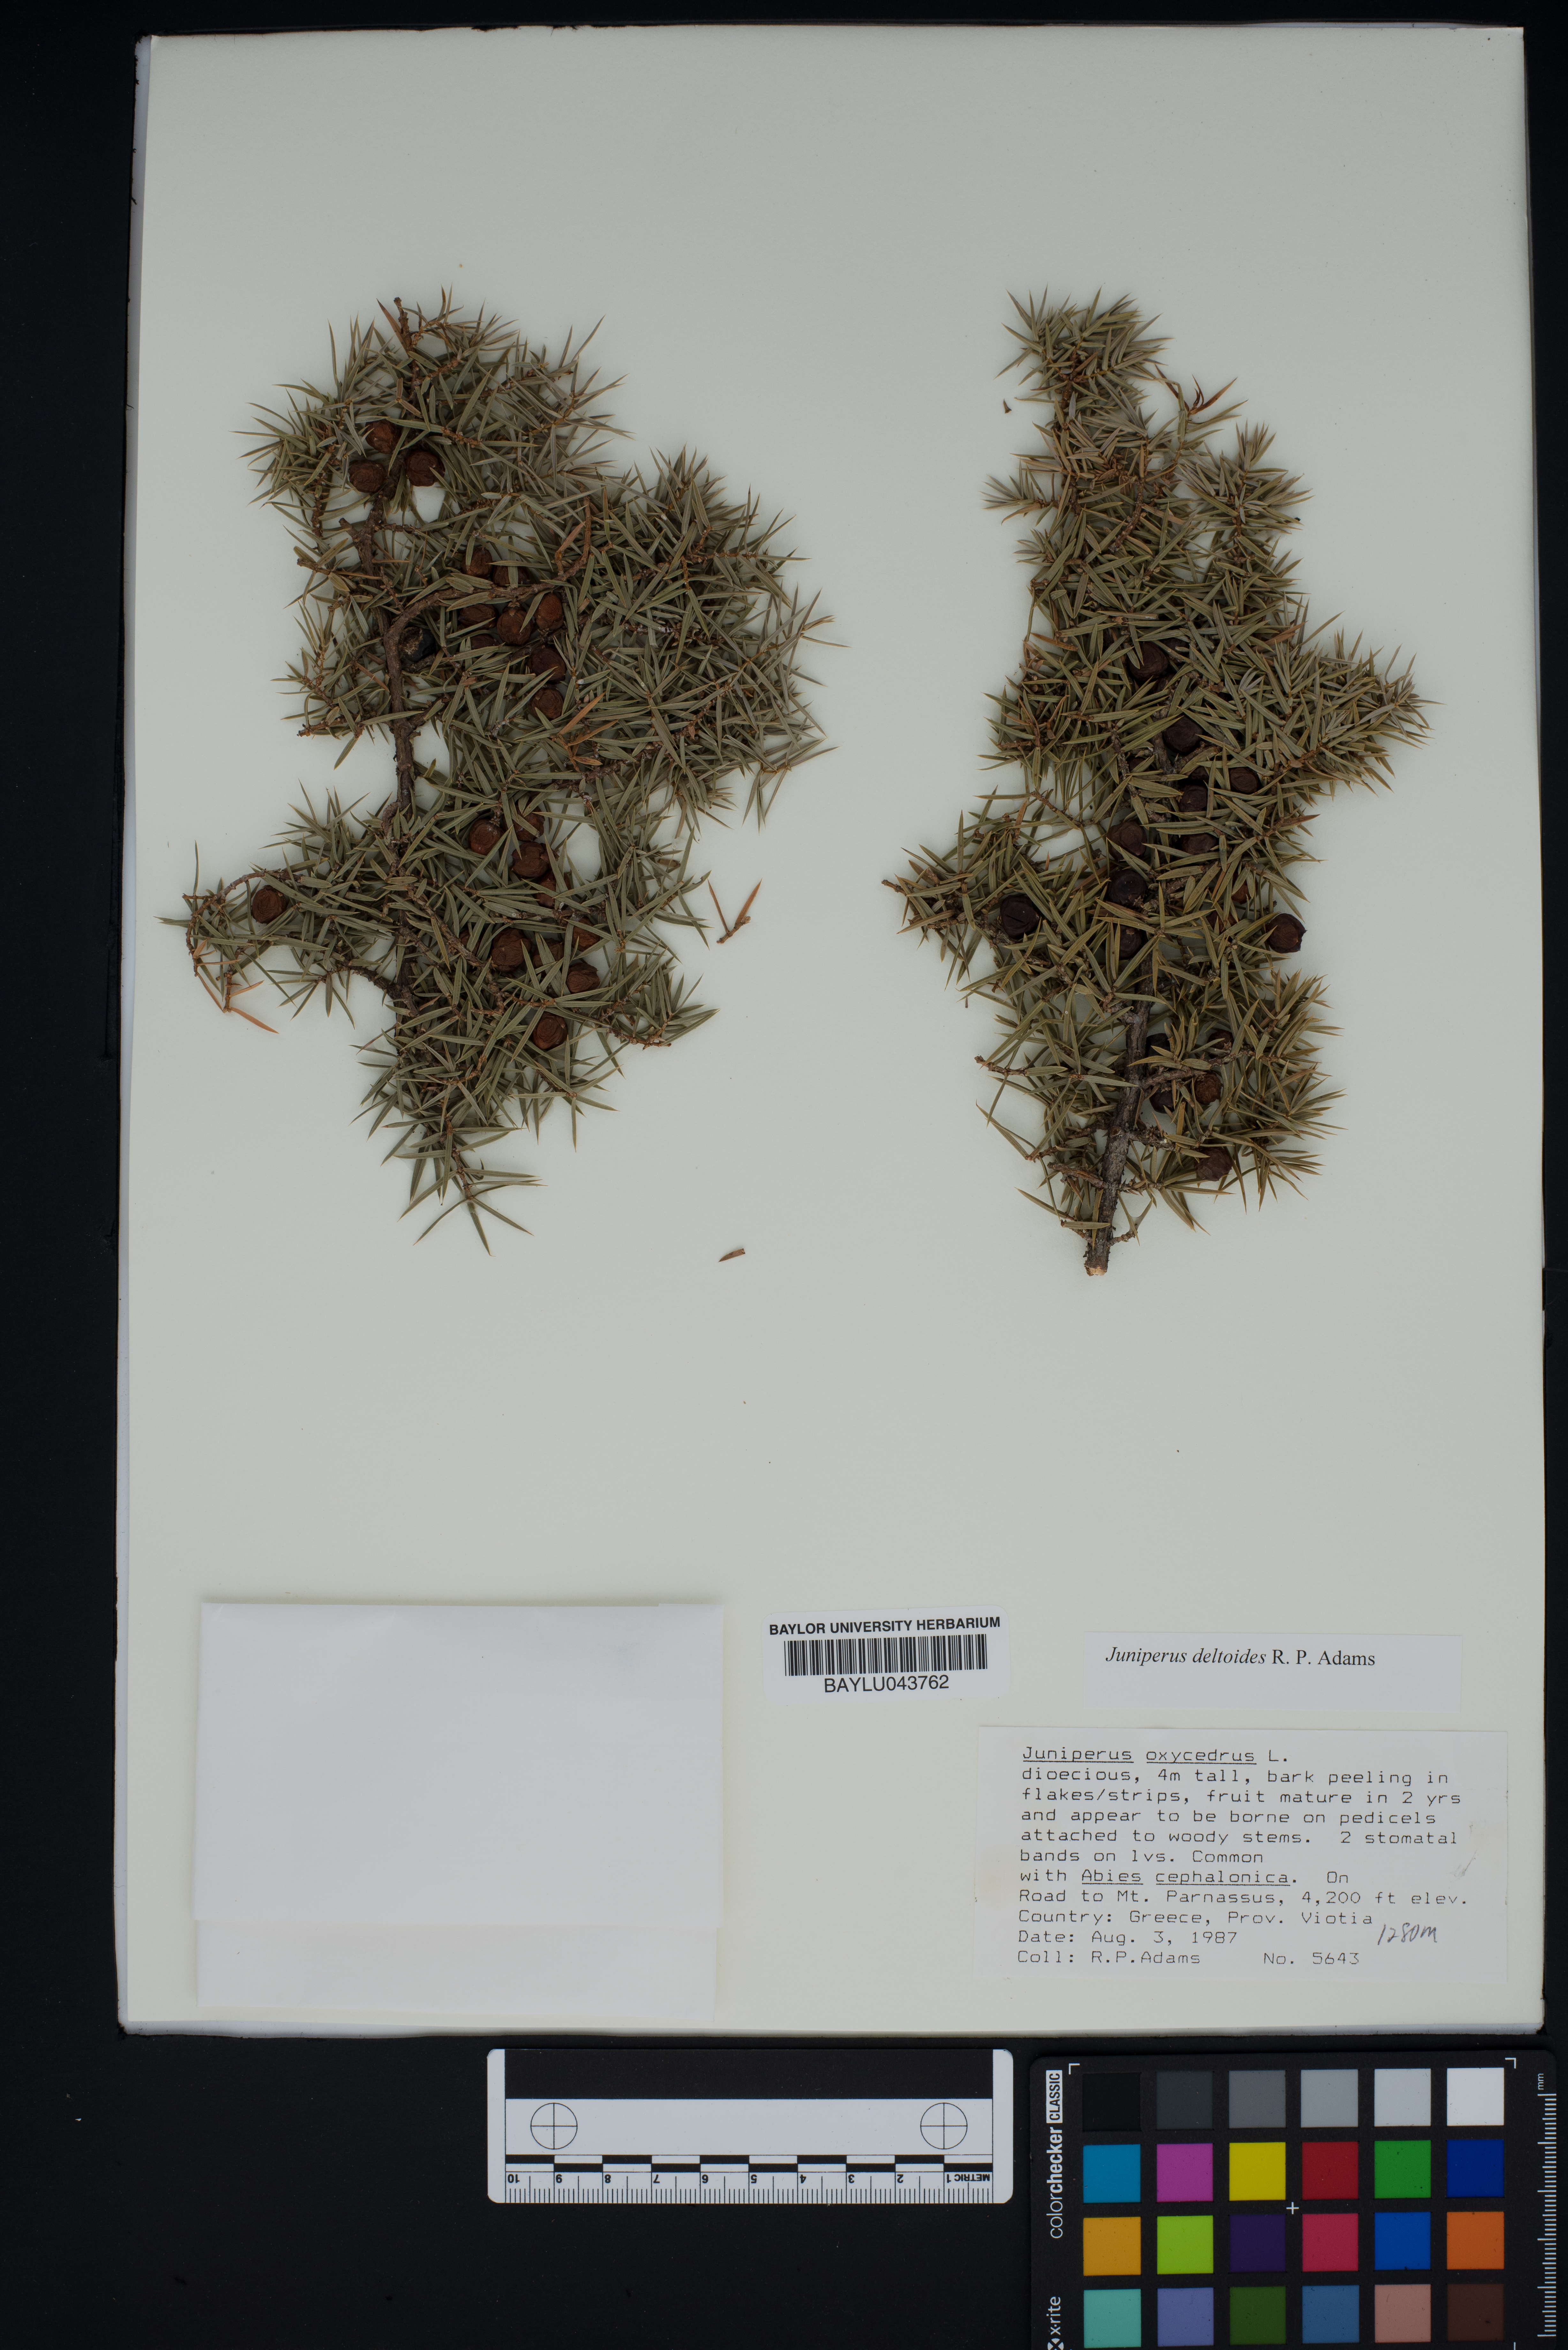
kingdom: Plantae
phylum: Tracheophyta
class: Pinopsida
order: Pinales
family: Cupressaceae
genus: Juniperus
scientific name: Juniperus oxycedrus
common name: Prickly juniper
